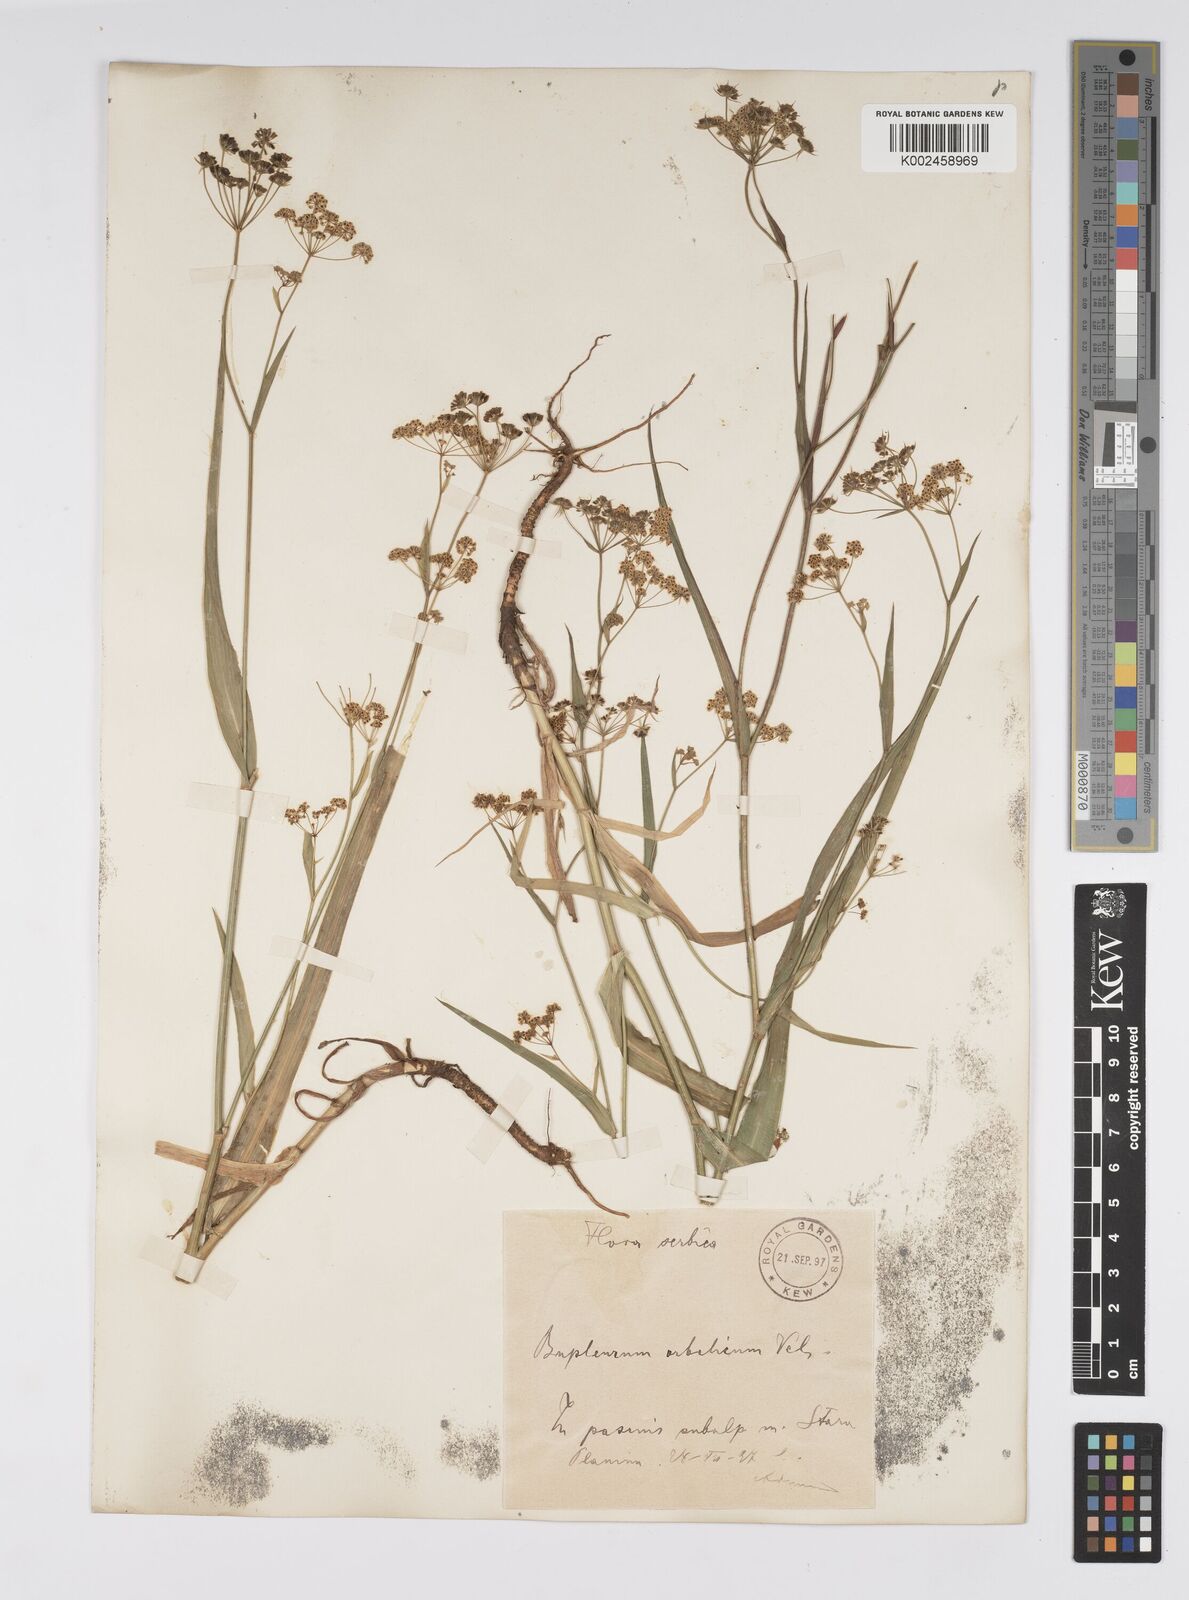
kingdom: Plantae
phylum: Tracheophyta
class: Magnoliopsida
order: Apiales
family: Apiaceae
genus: Bupleurum
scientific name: Bupleurum falcatum
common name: Sickle-leaved hare's-ear
